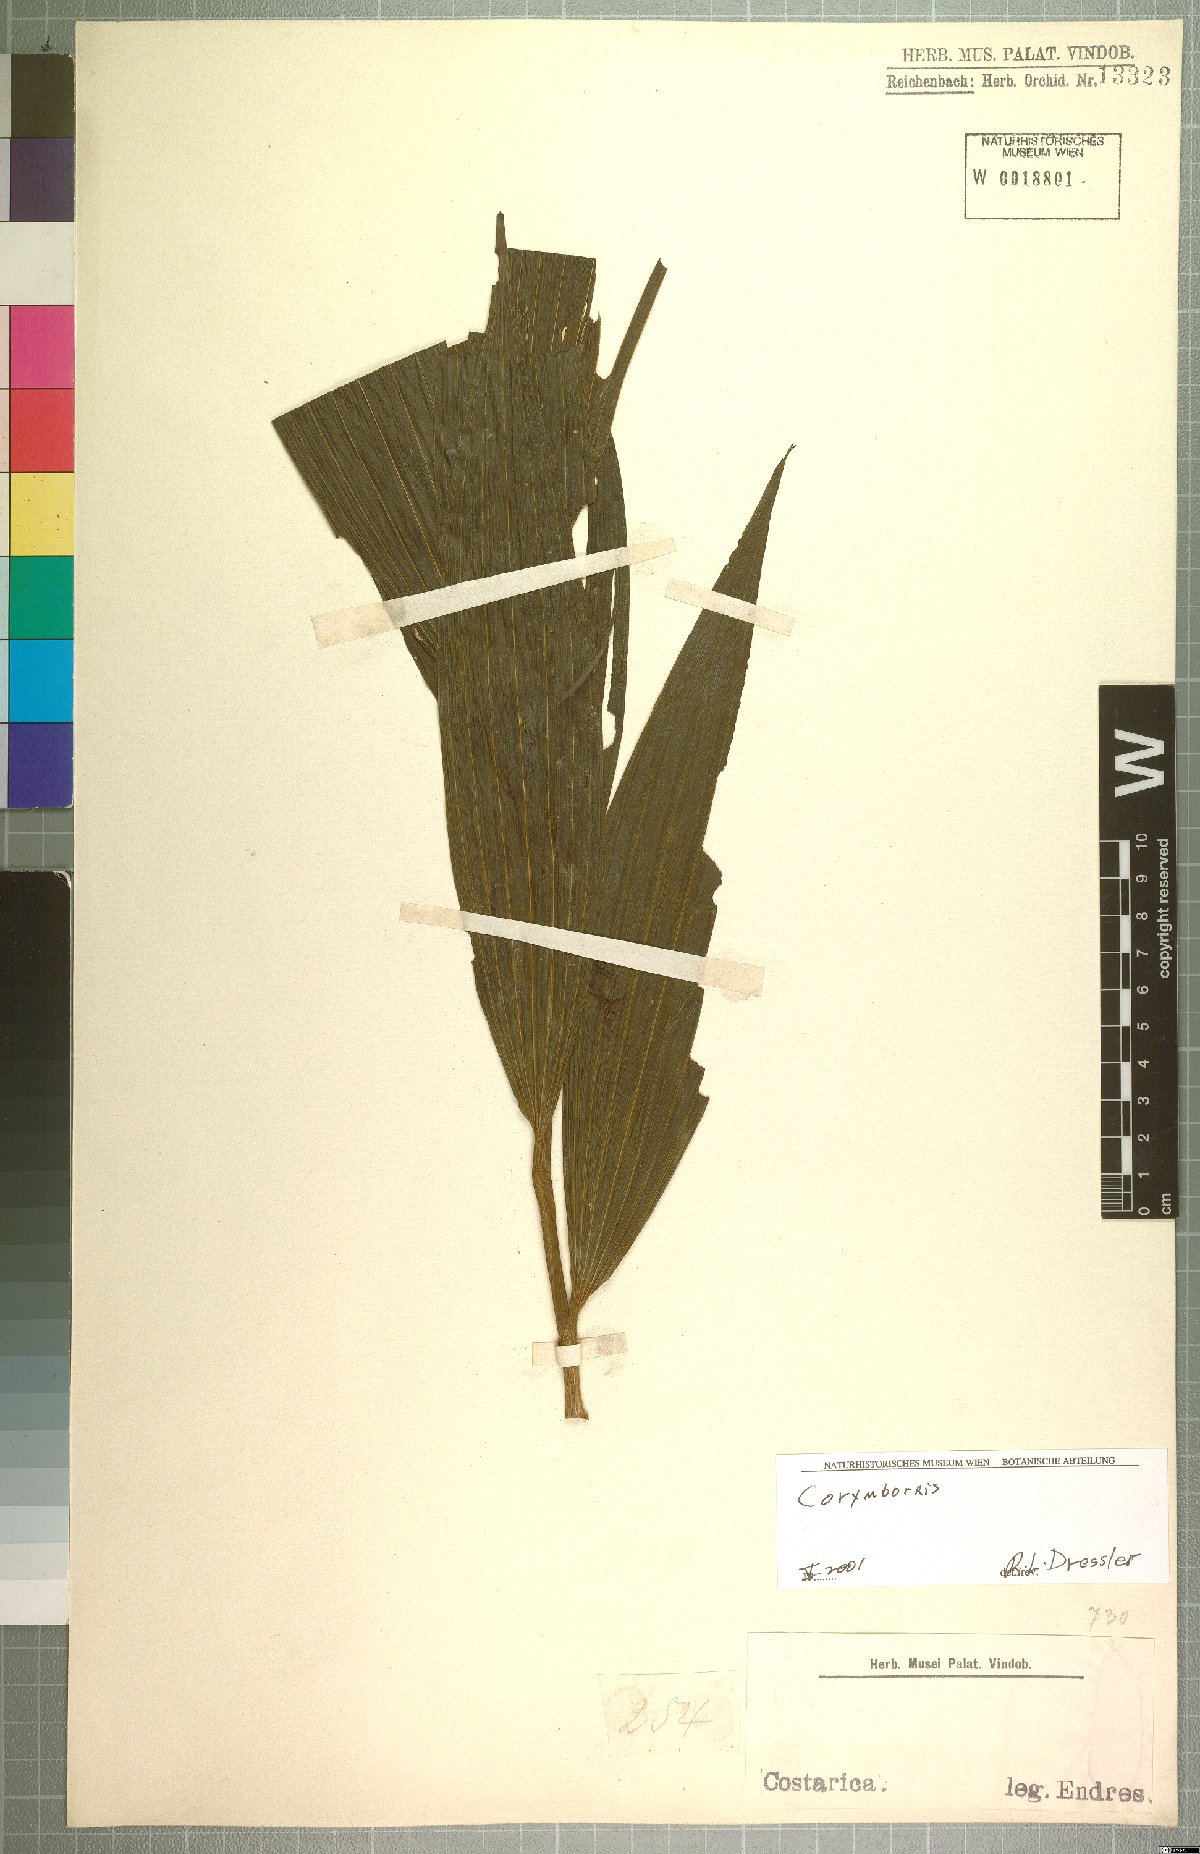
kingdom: Plantae
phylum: Tracheophyta
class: Liliopsida
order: Asparagales
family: Orchidaceae
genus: Corymborkis
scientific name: Corymborkis
